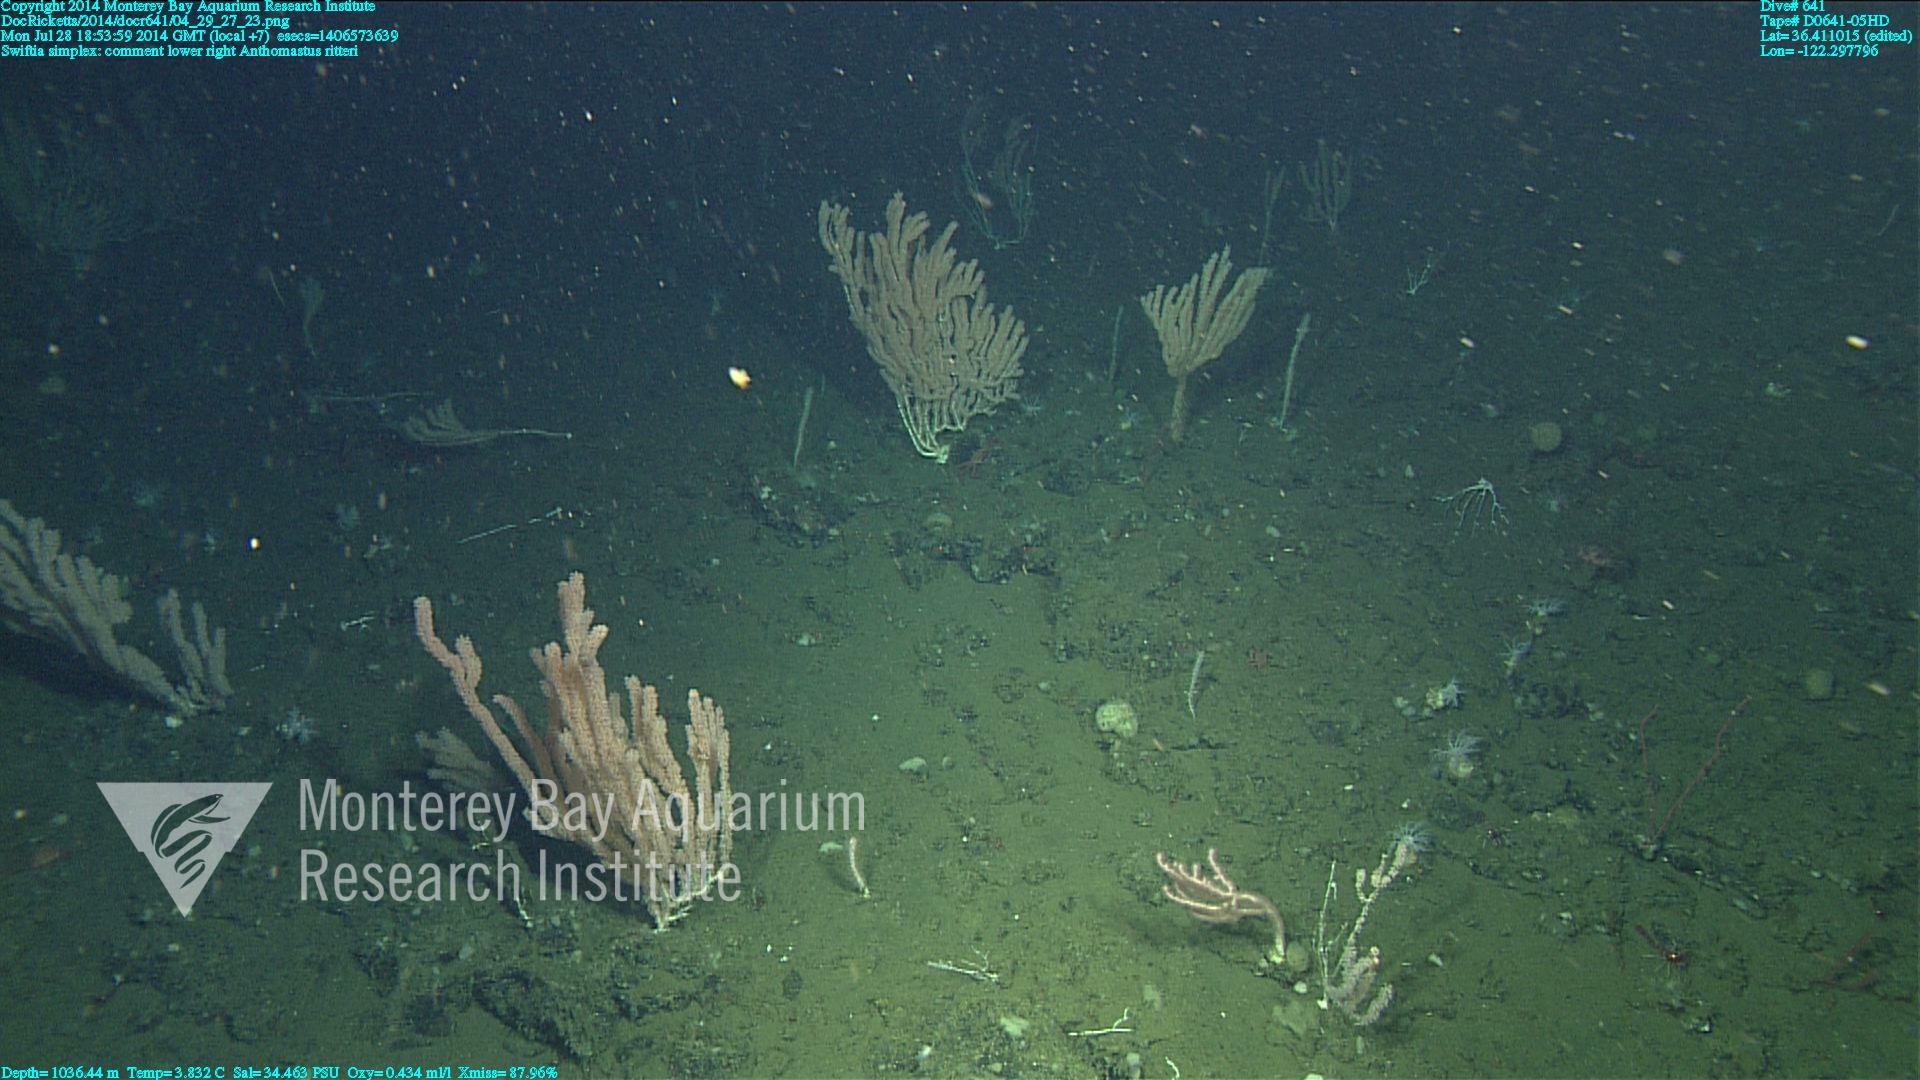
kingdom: Animalia
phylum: Cnidaria
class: Anthozoa
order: Scleralcyonacea
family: Coralliidae
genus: Heteropolypus
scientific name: Heteropolypus ritteri
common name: Ritter's soft coral
